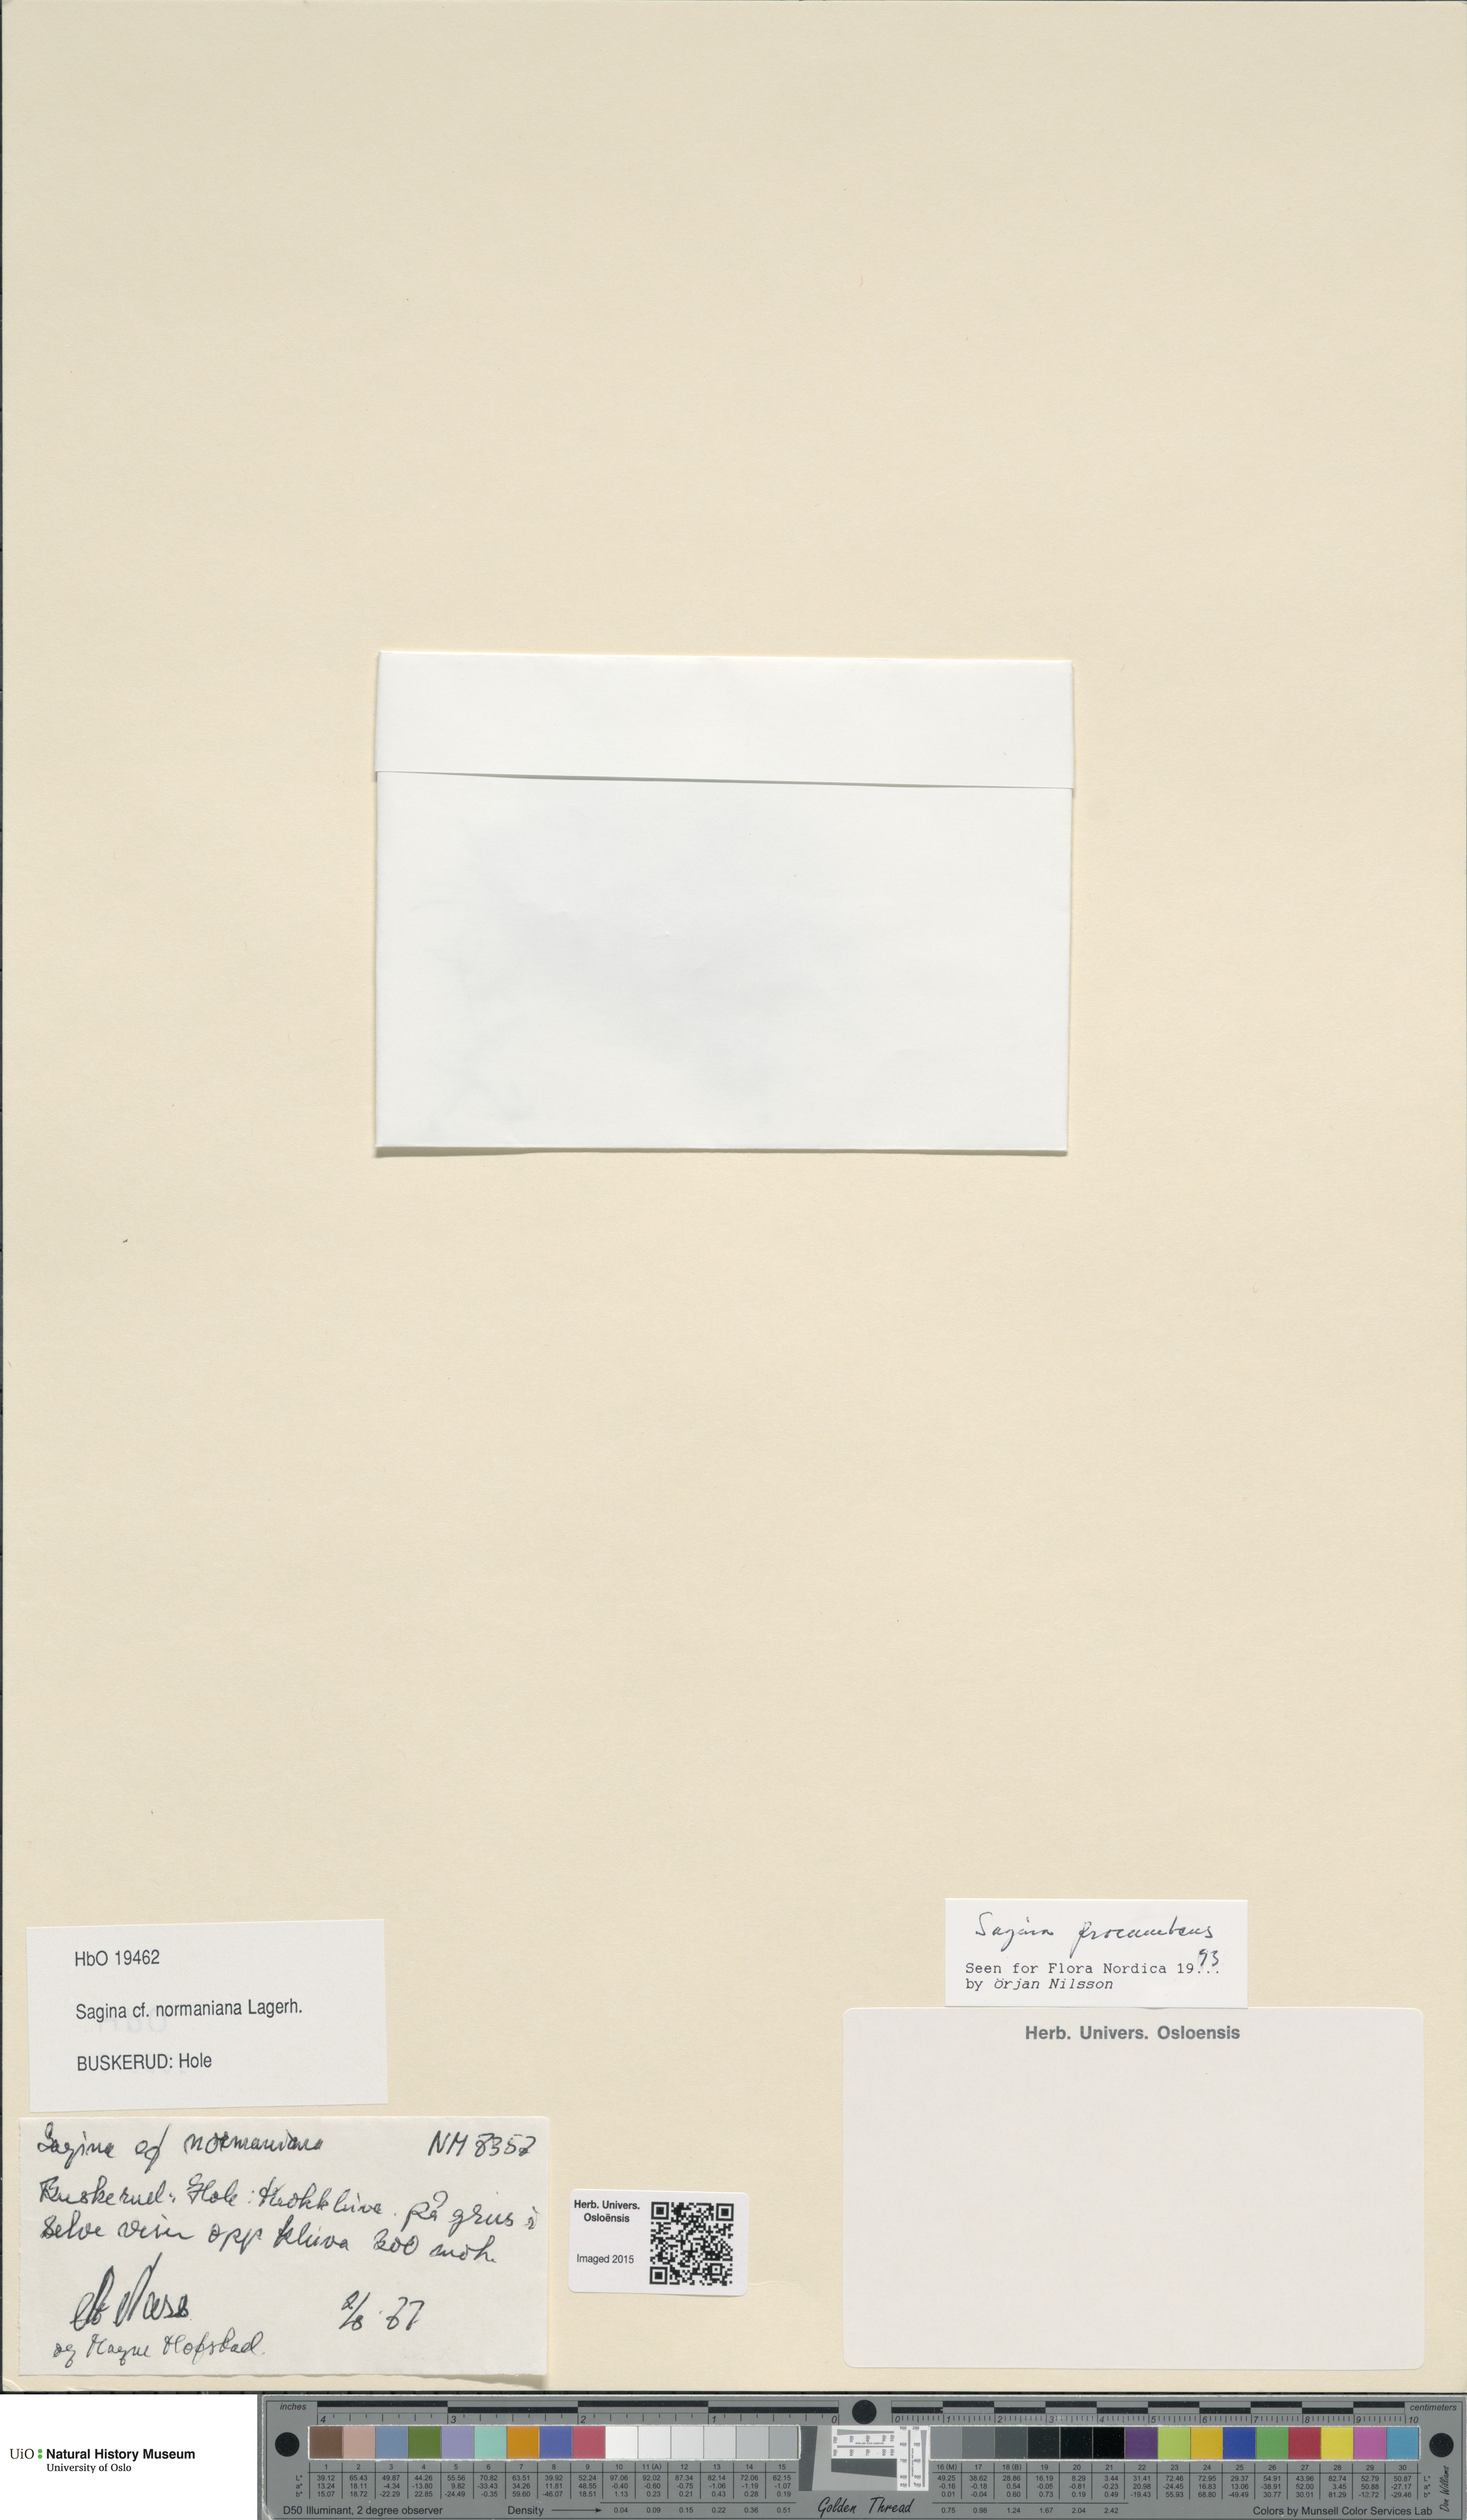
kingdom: Plantae
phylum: Tracheophyta
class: Magnoliopsida
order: Caryophyllales
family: Caryophyllaceae
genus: Sagina
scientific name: Sagina media
